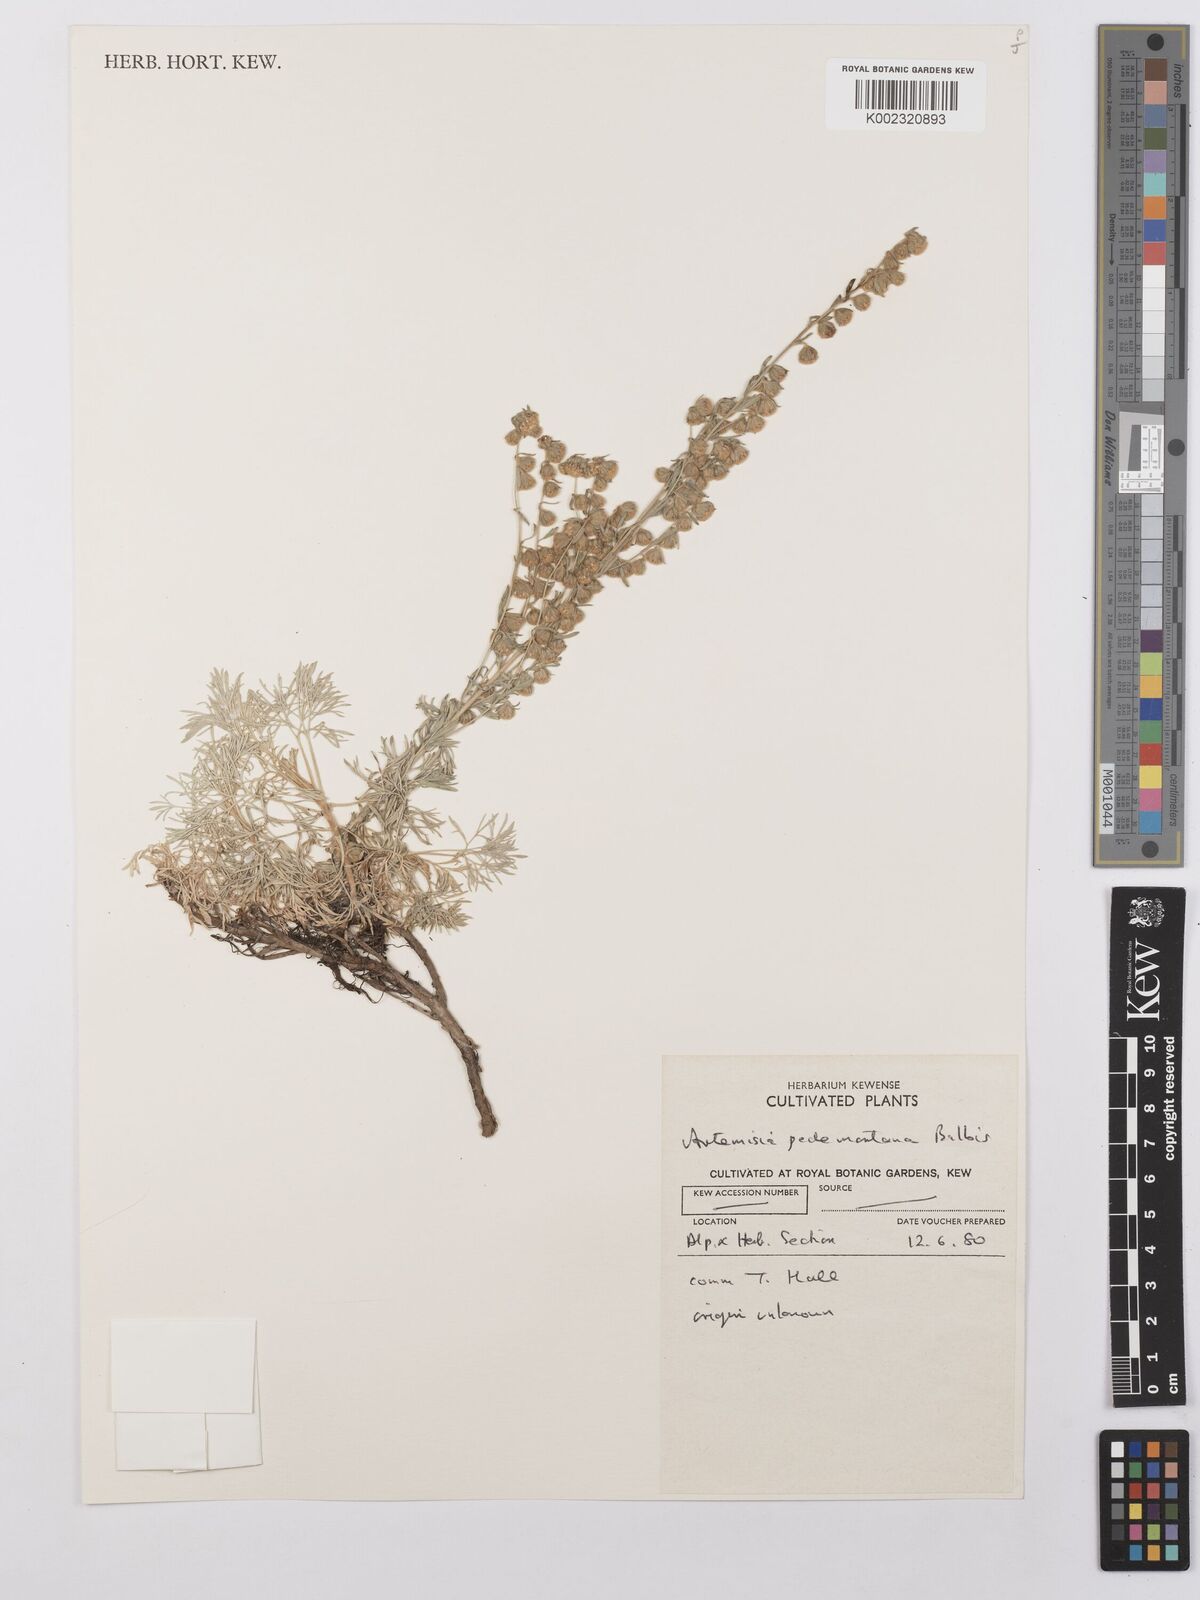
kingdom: Plantae
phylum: Tracheophyta
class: Magnoliopsida
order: Asterales
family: Asteraceae
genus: Artemisia
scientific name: Artemisia pedemontana
